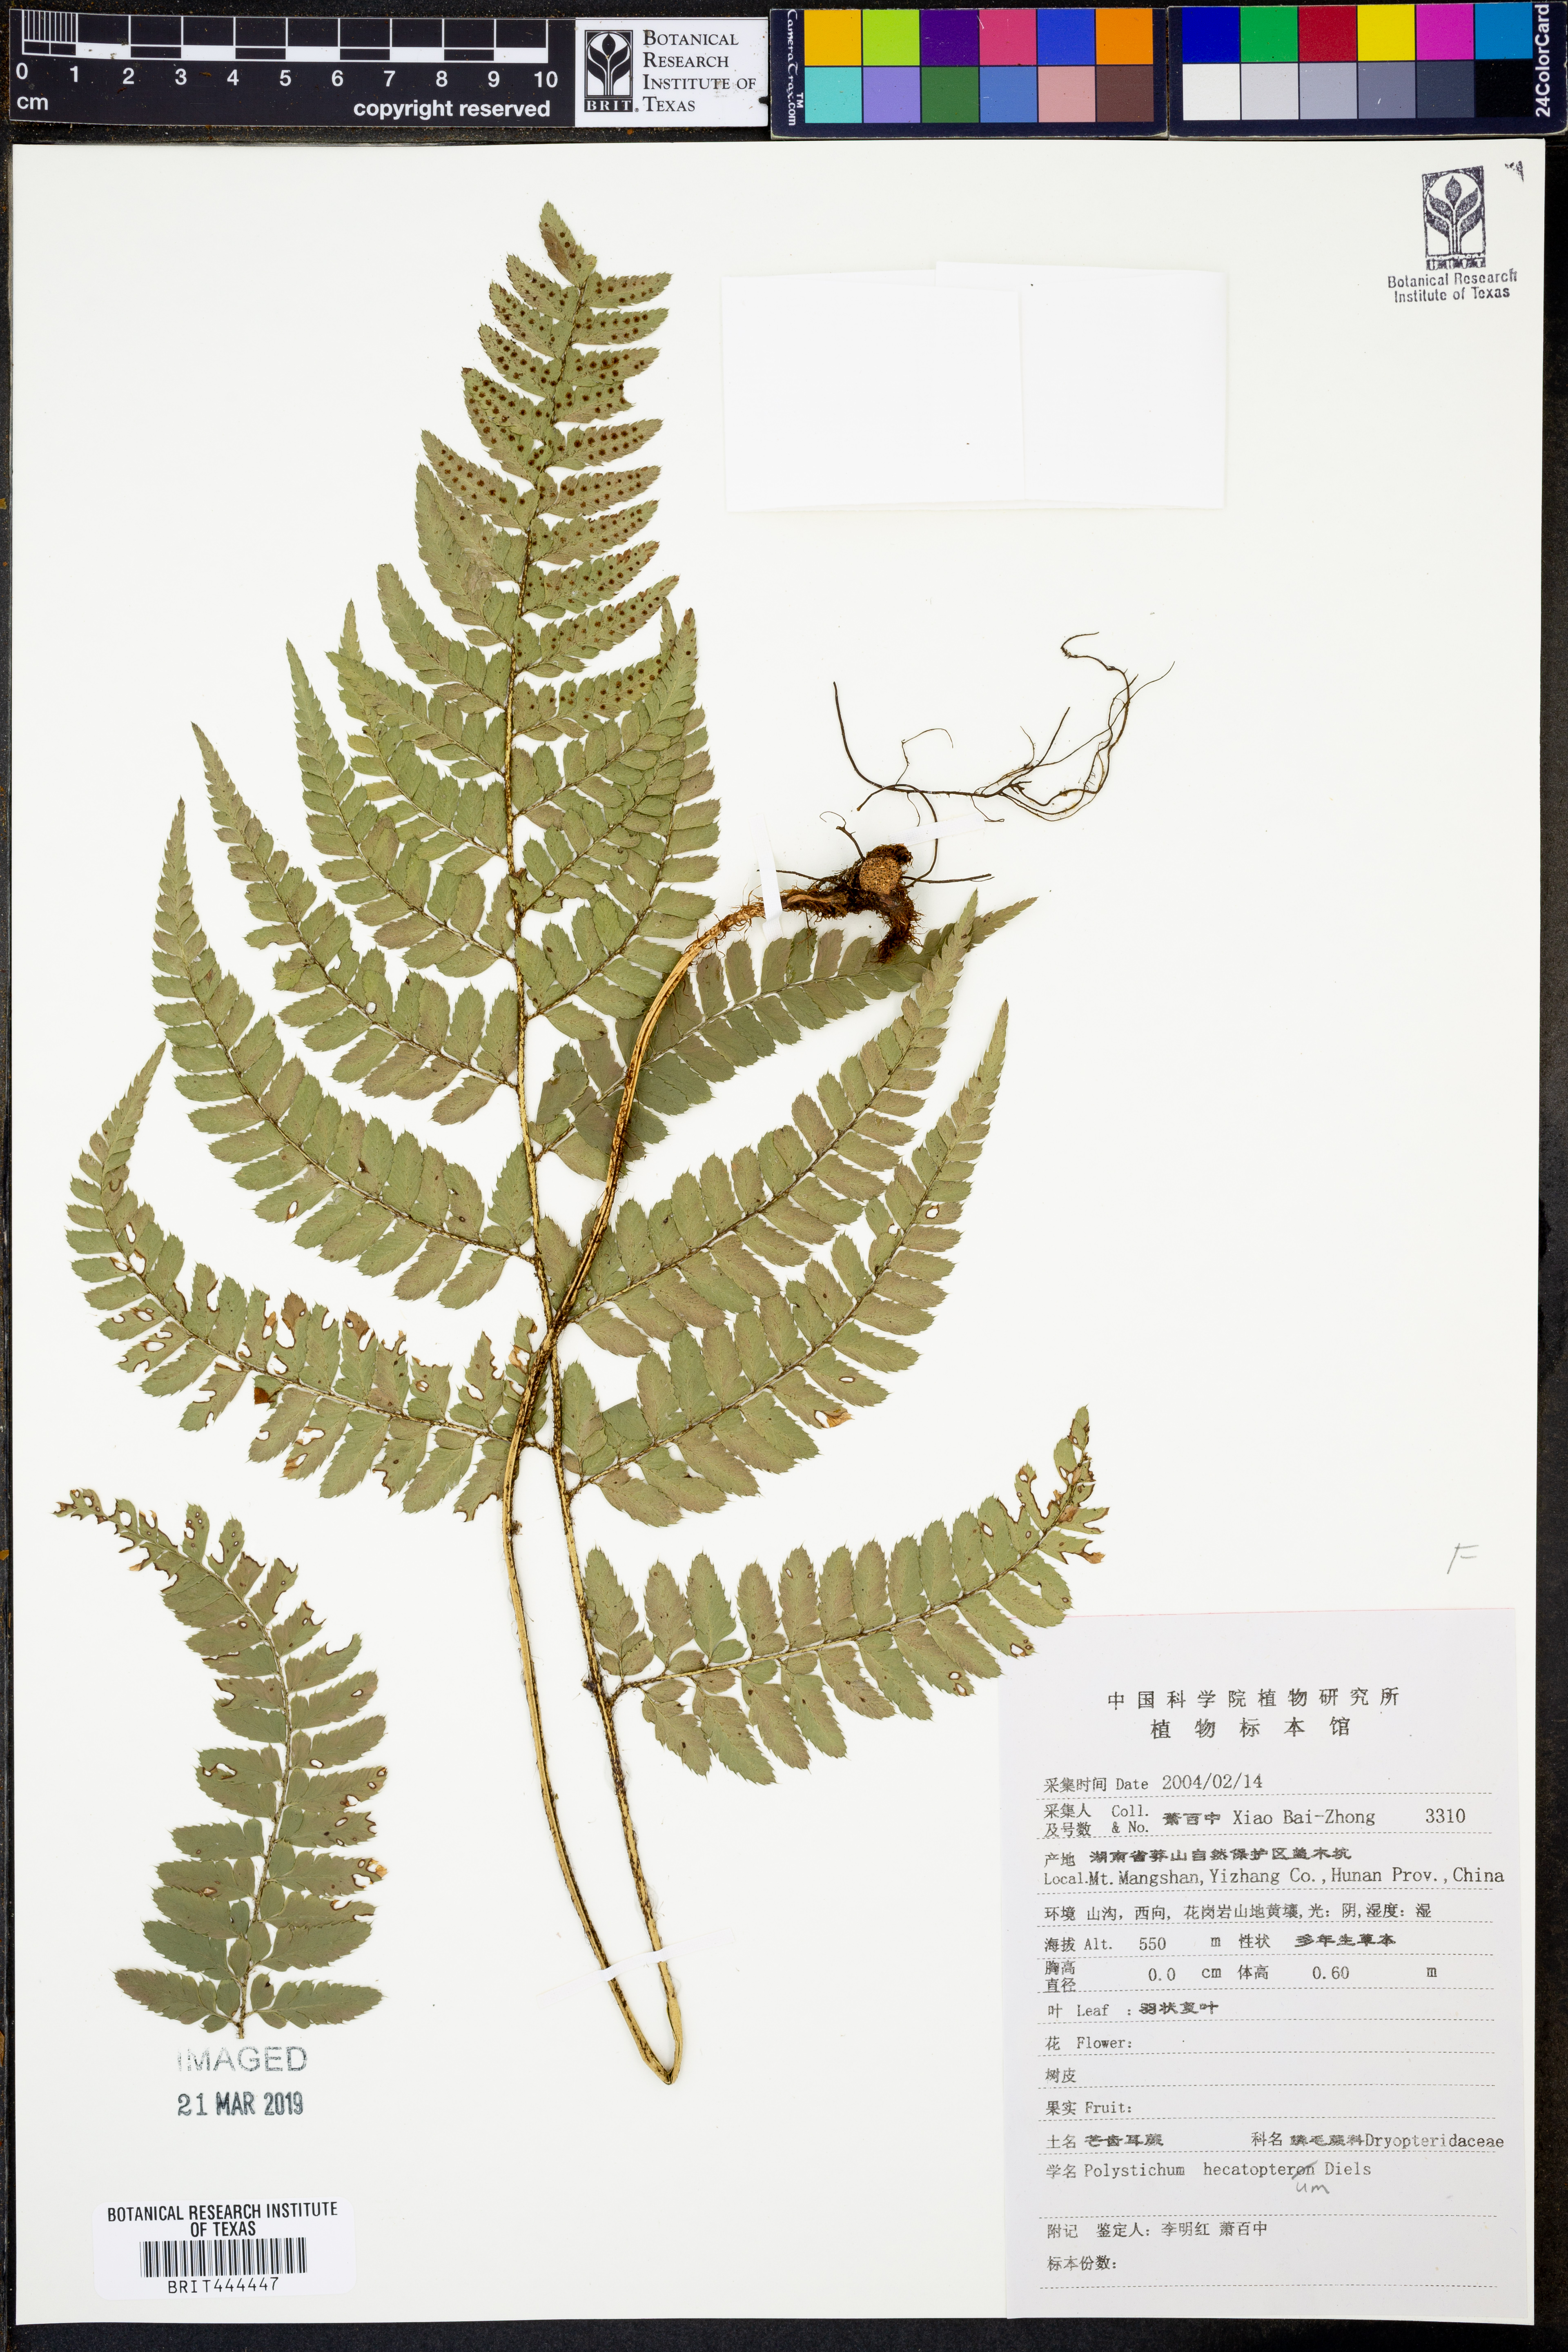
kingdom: Plantae
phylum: Tracheophyta
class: Polypodiopsida
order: Polypodiales
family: Dryopteridaceae
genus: Polystichum
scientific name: Polystichum hecatopterum
